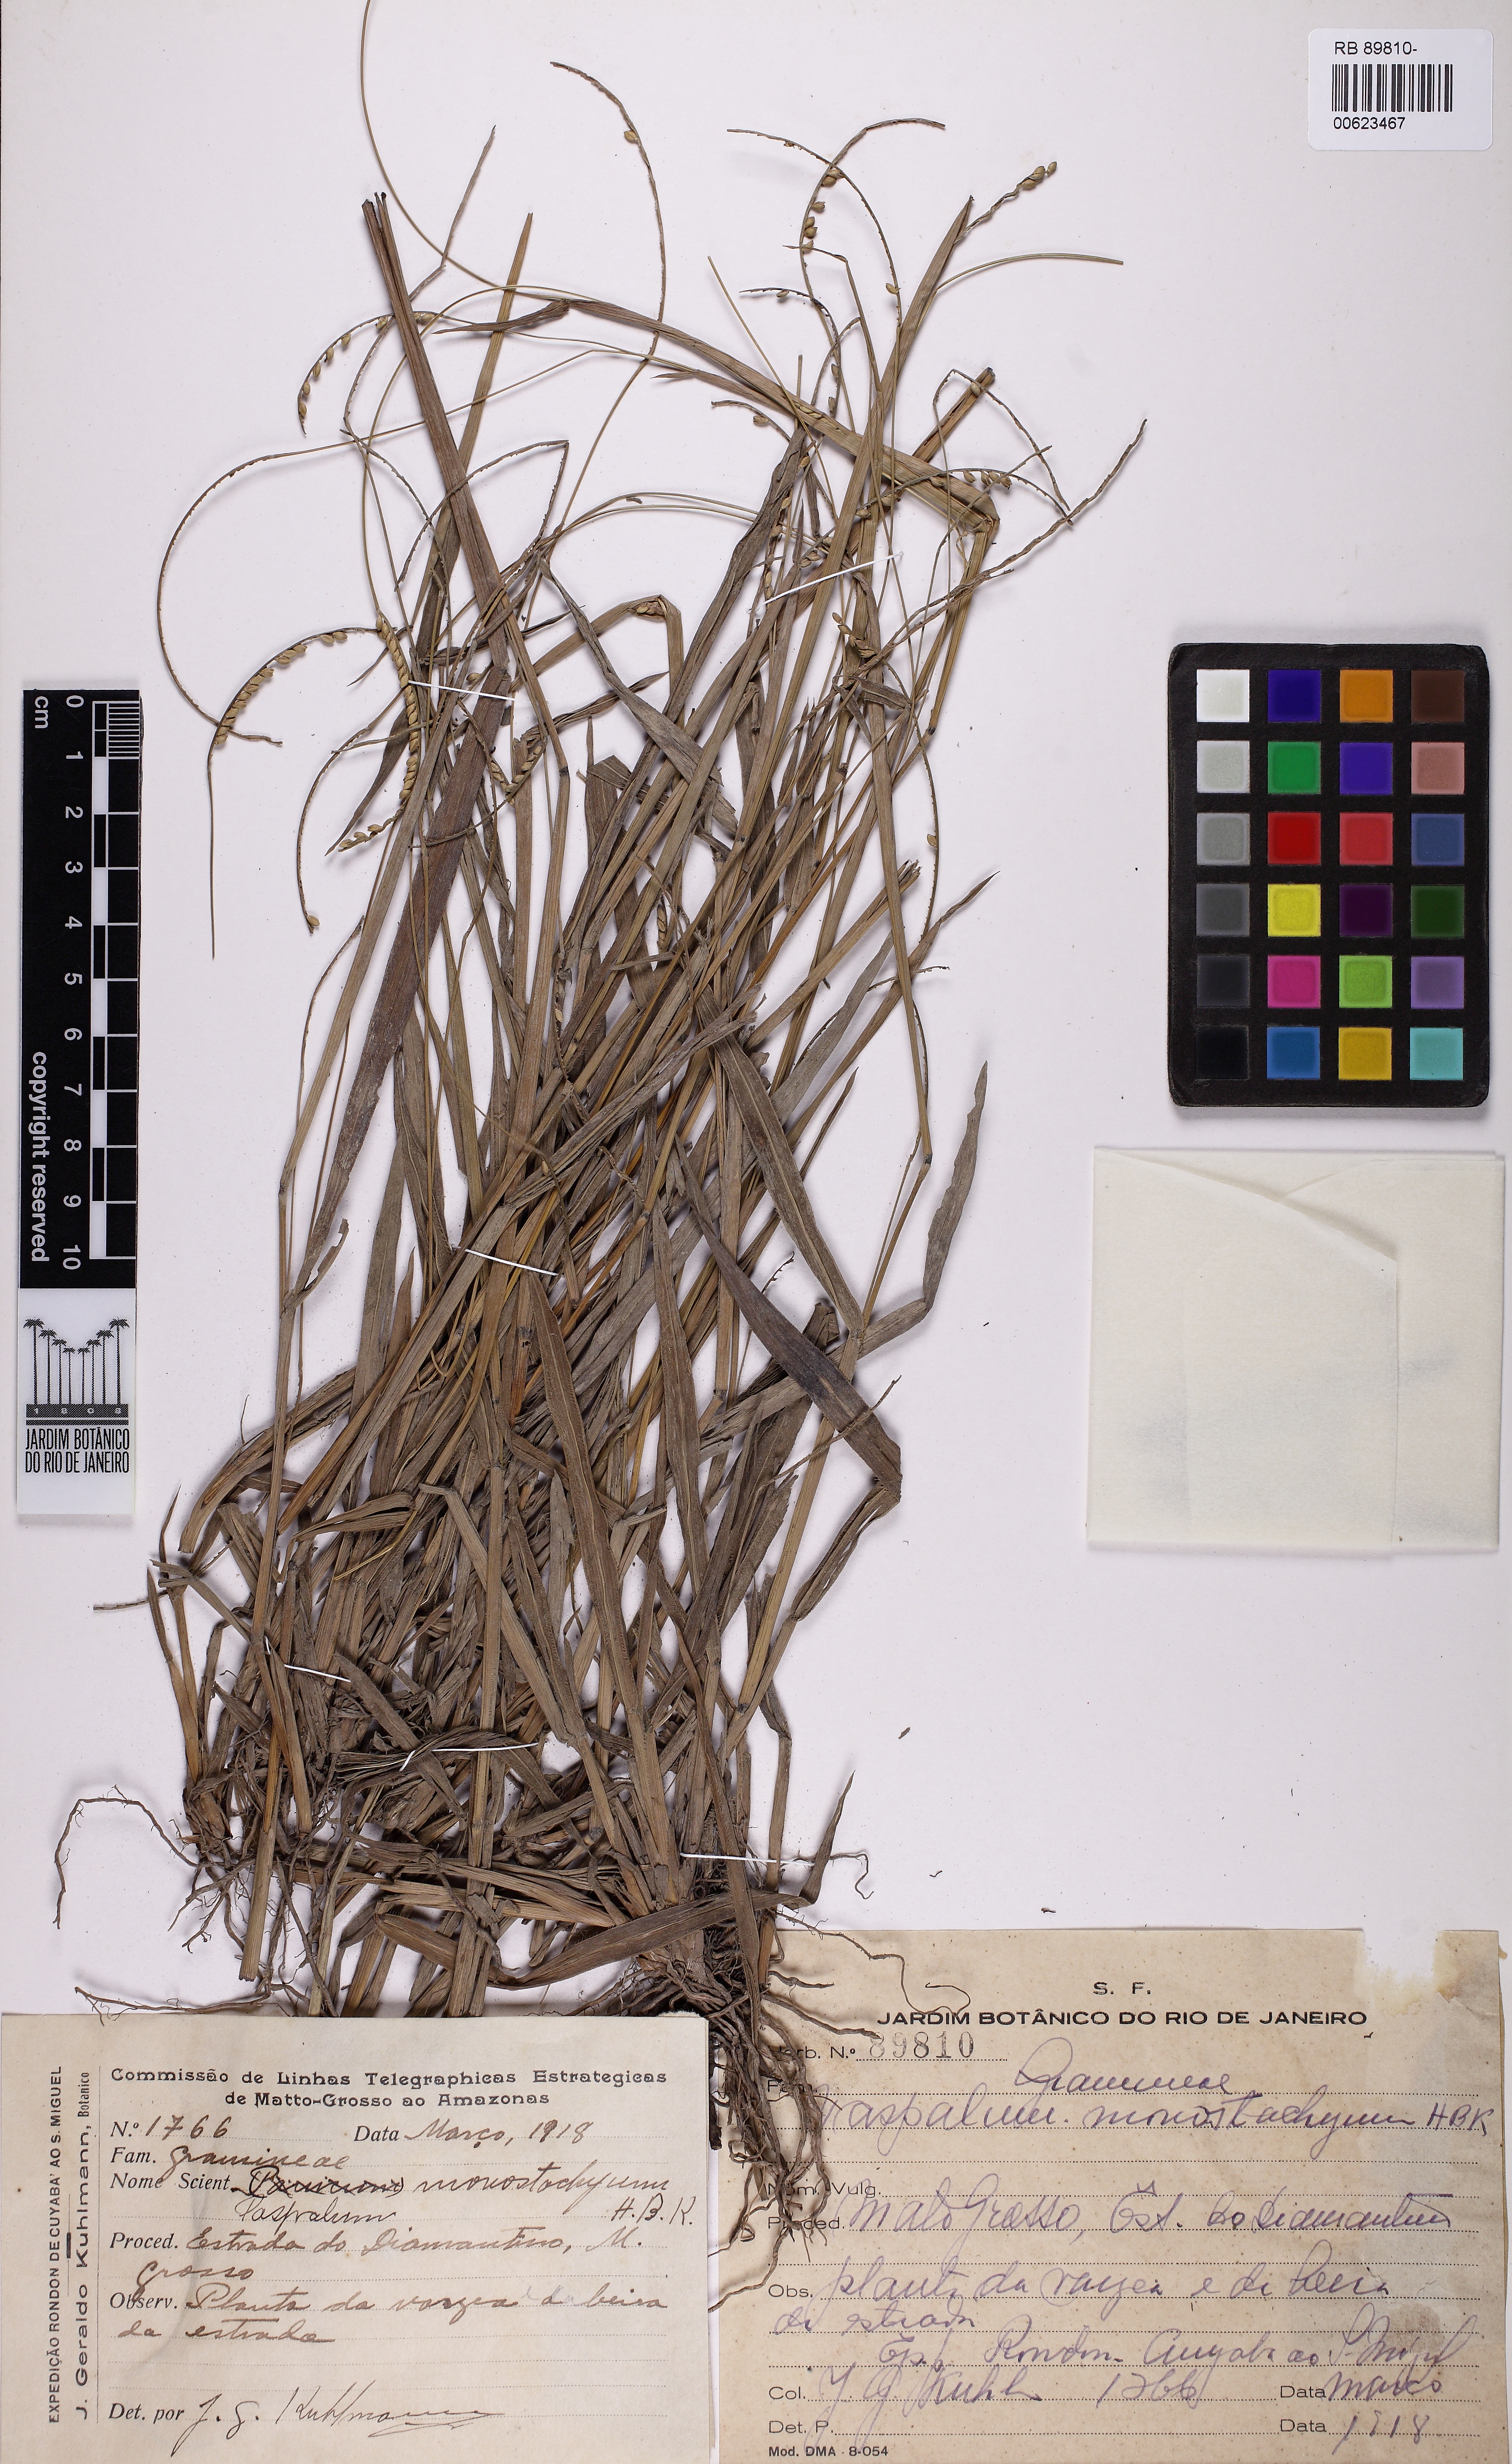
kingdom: Plantae
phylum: Tracheophyta
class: Liliopsida
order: Poales
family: Poaceae
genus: Paspalum
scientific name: Paspalum monostachyum
